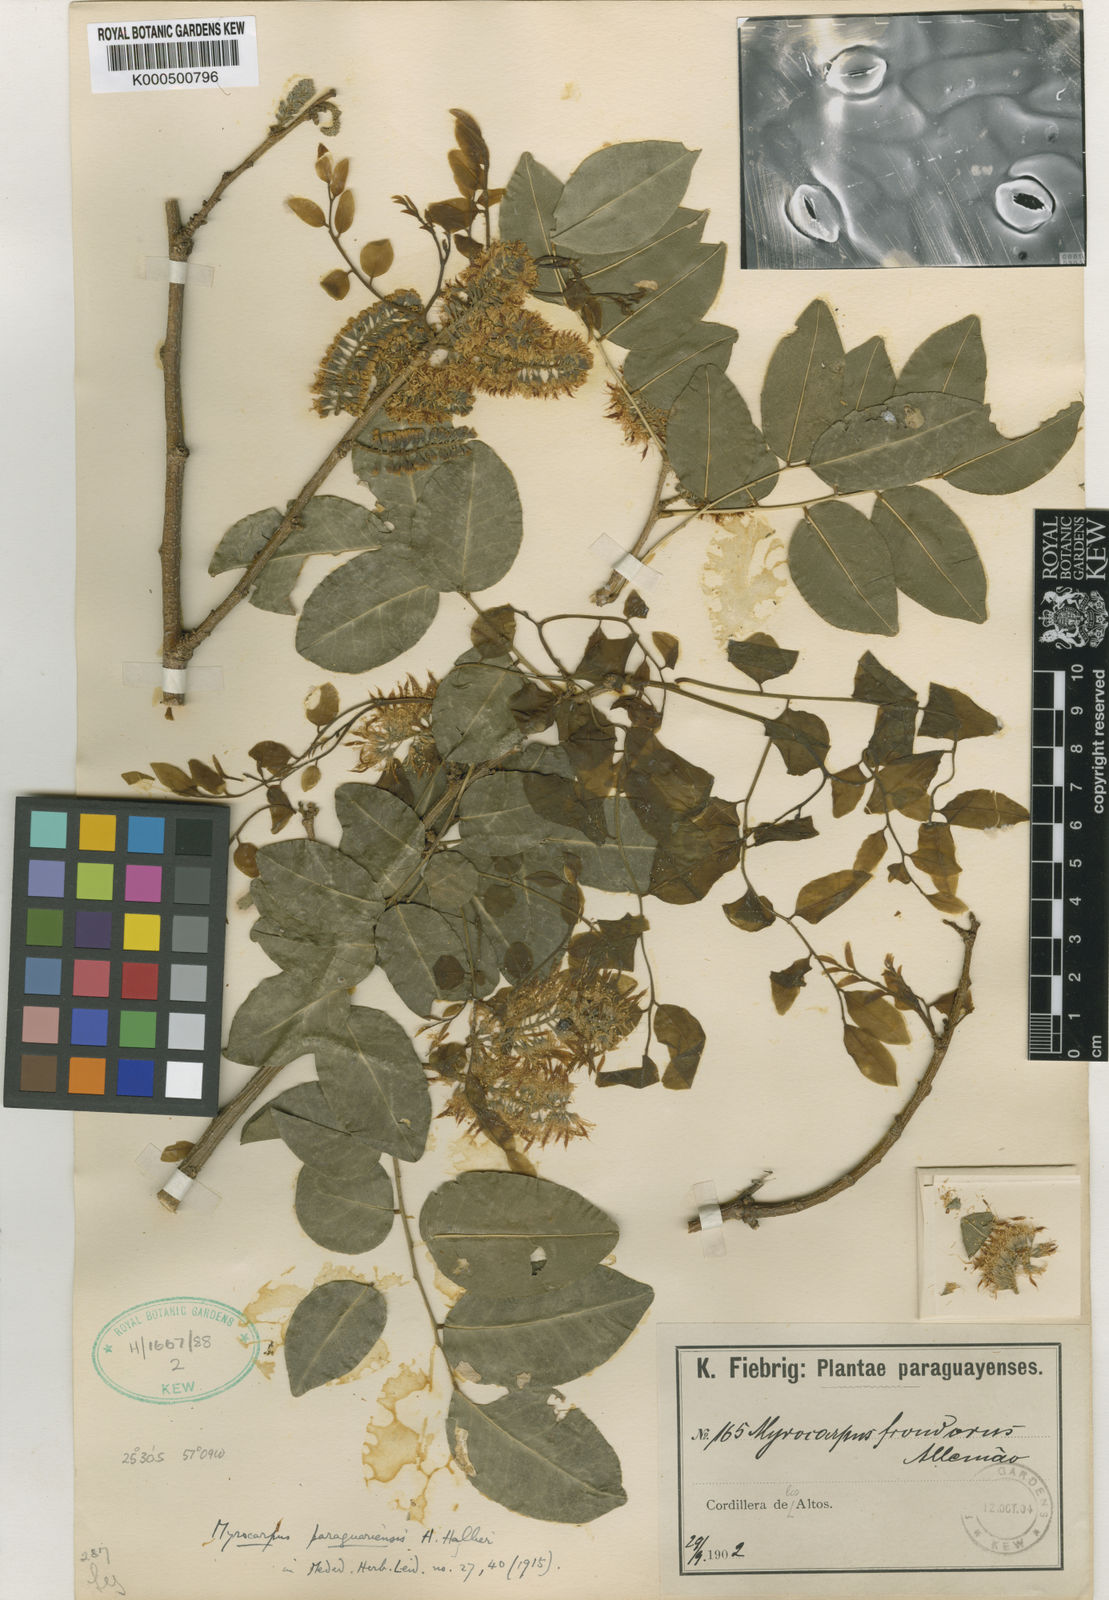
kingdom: Plantae
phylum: Tracheophyta
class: Magnoliopsida
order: Fabales
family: Fabaceae
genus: Myrocarpus
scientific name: Myrocarpus
